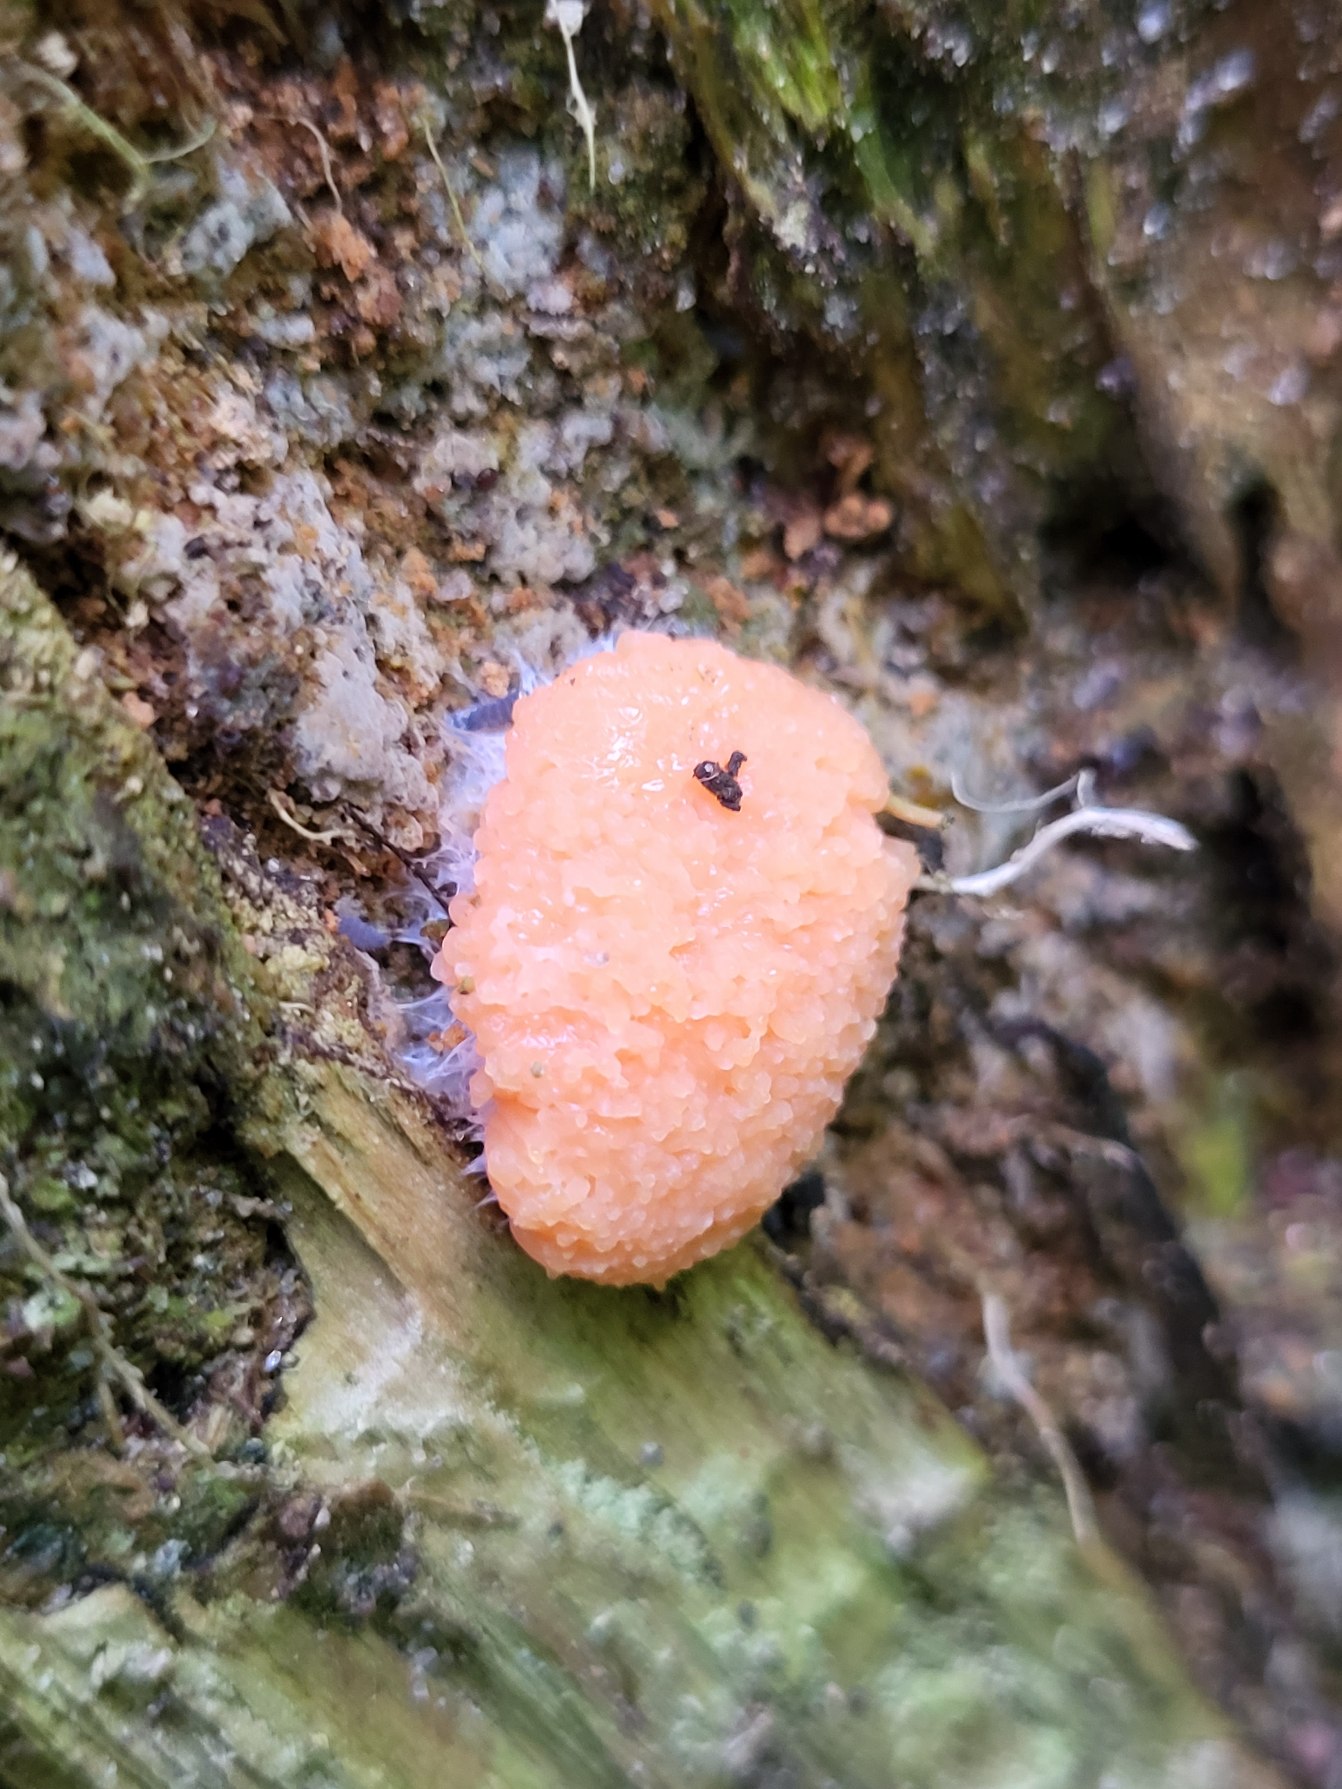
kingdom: Protozoa
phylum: Mycetozoa
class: Myxomycetes
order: Cribrariales
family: Tubiferaceae
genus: Tubifera
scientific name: Tubifera ferruginosa
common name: Kanel-støvrør
